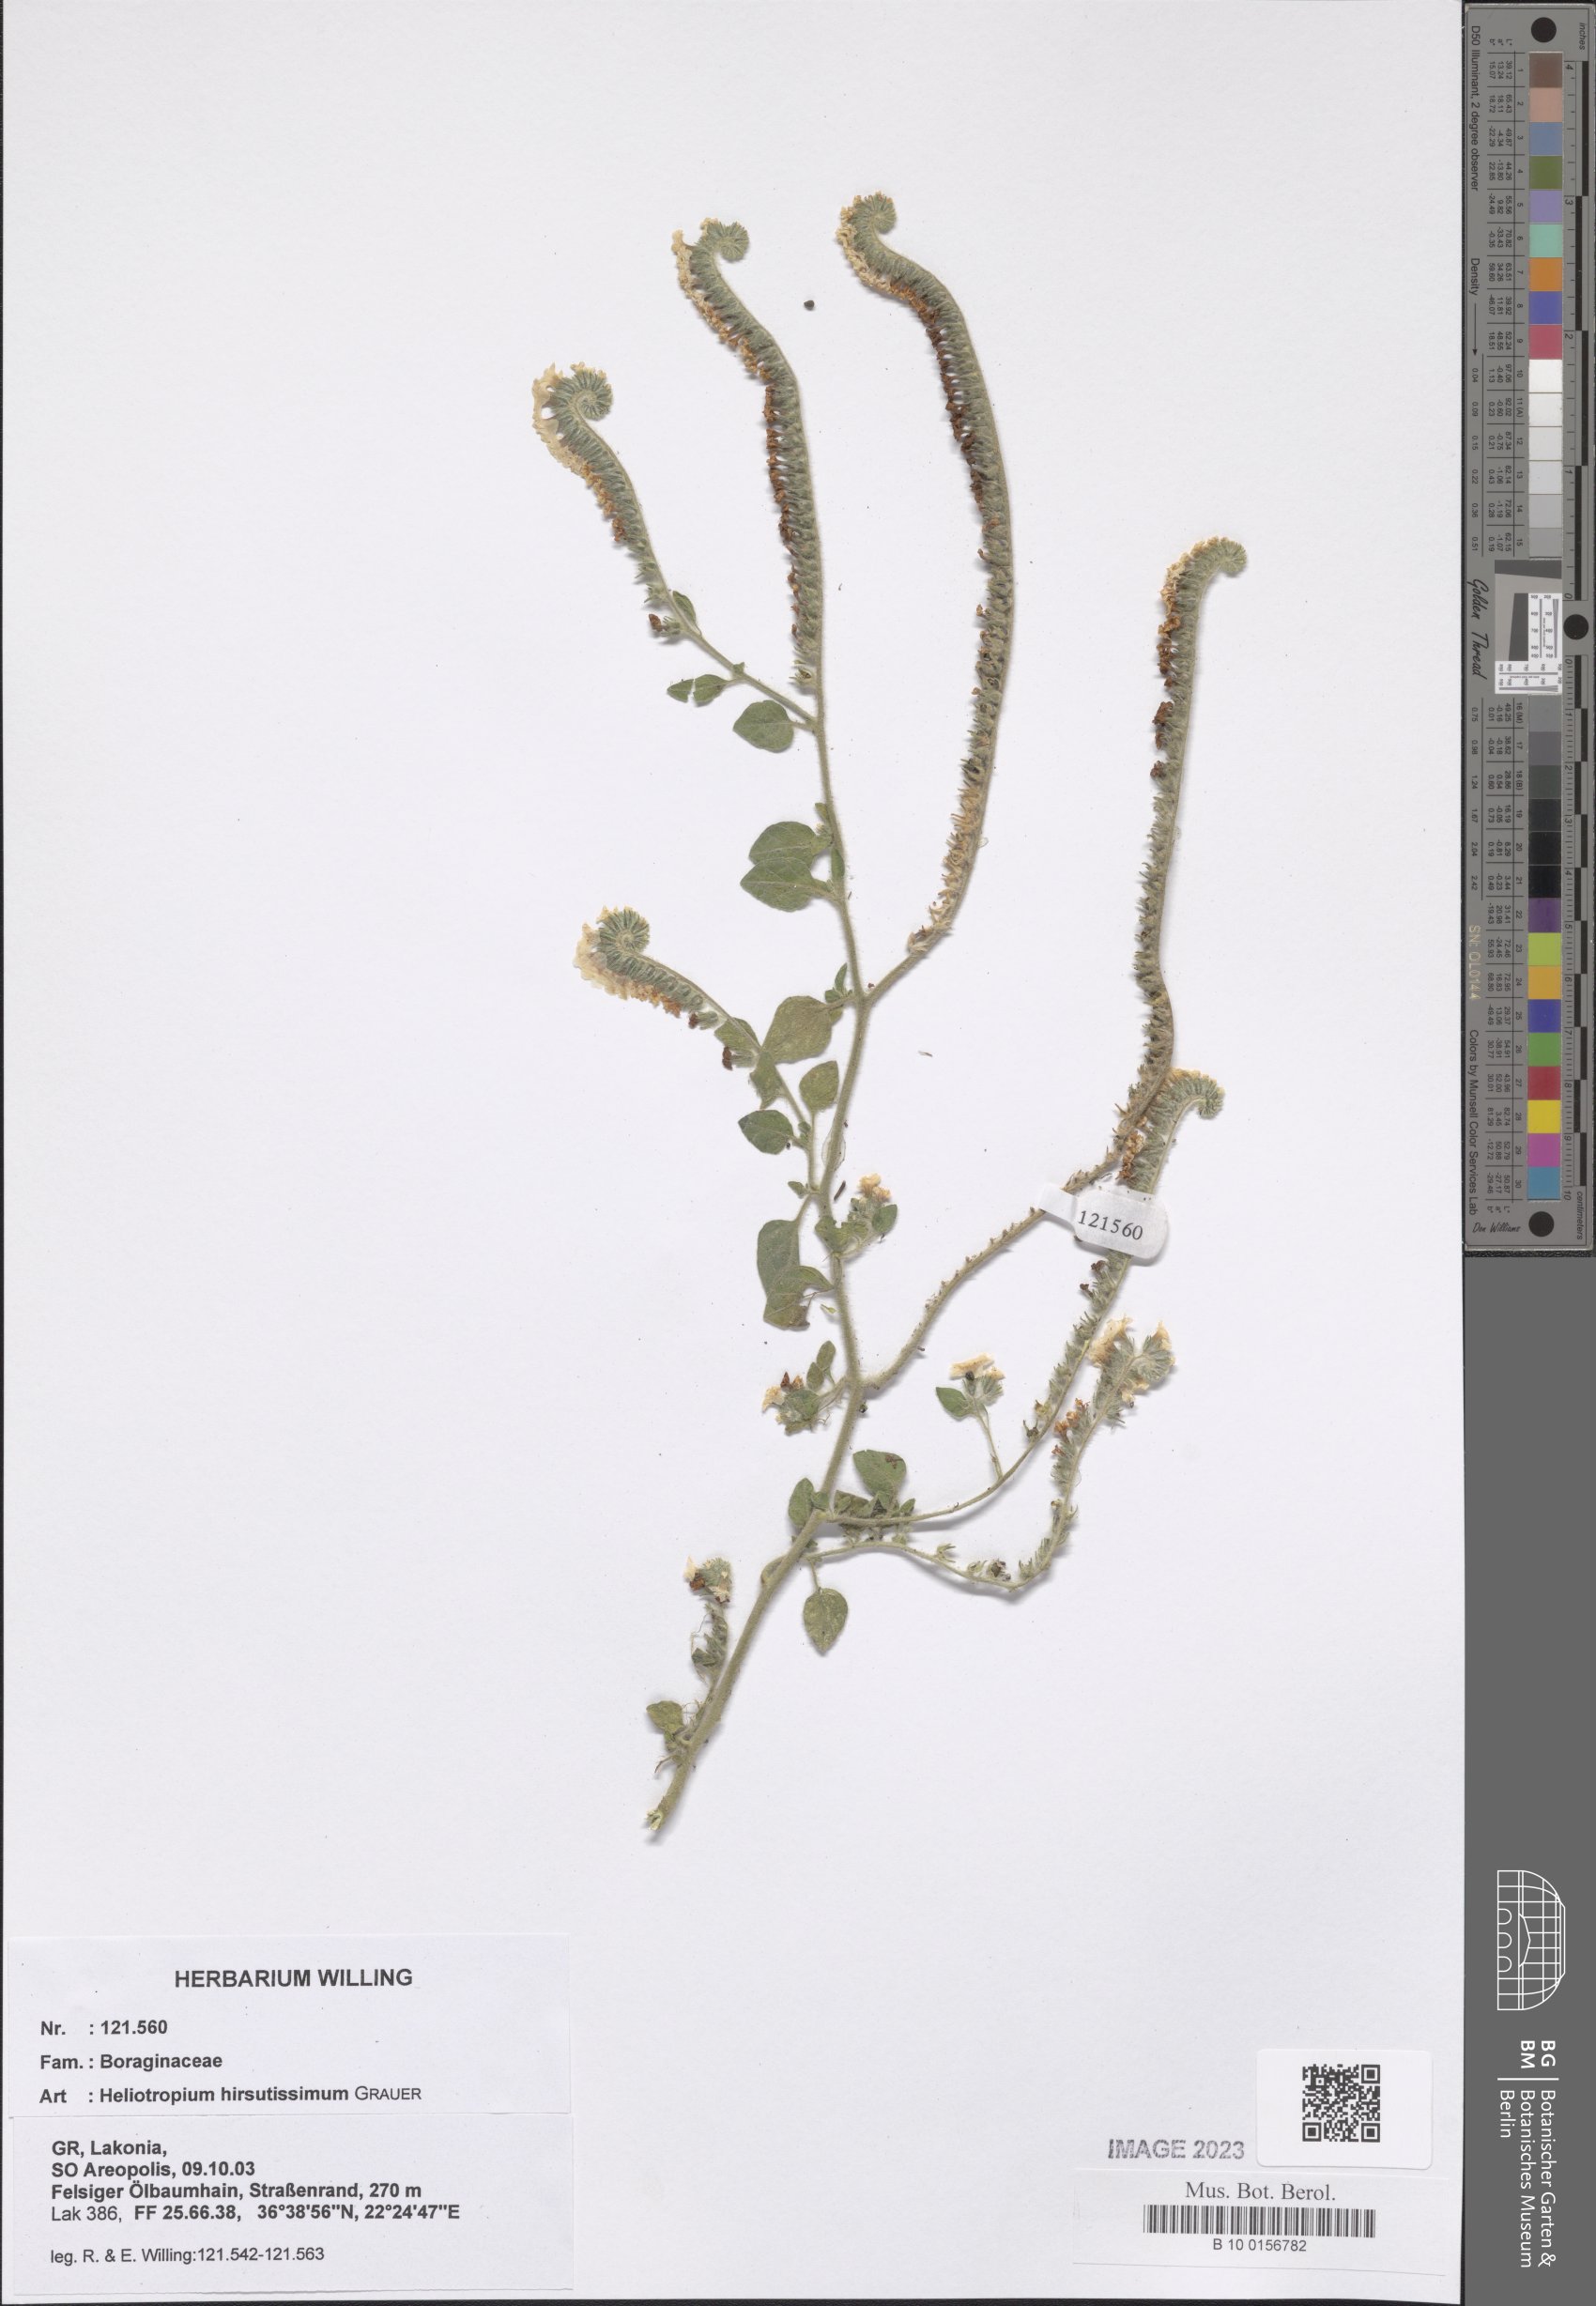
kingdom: Plantae
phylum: Tracheophyta
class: Magnoliopsida
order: Boraginales
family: Heliotropiaceae
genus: Heliotropium
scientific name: Heliotropium hirsutissimum
